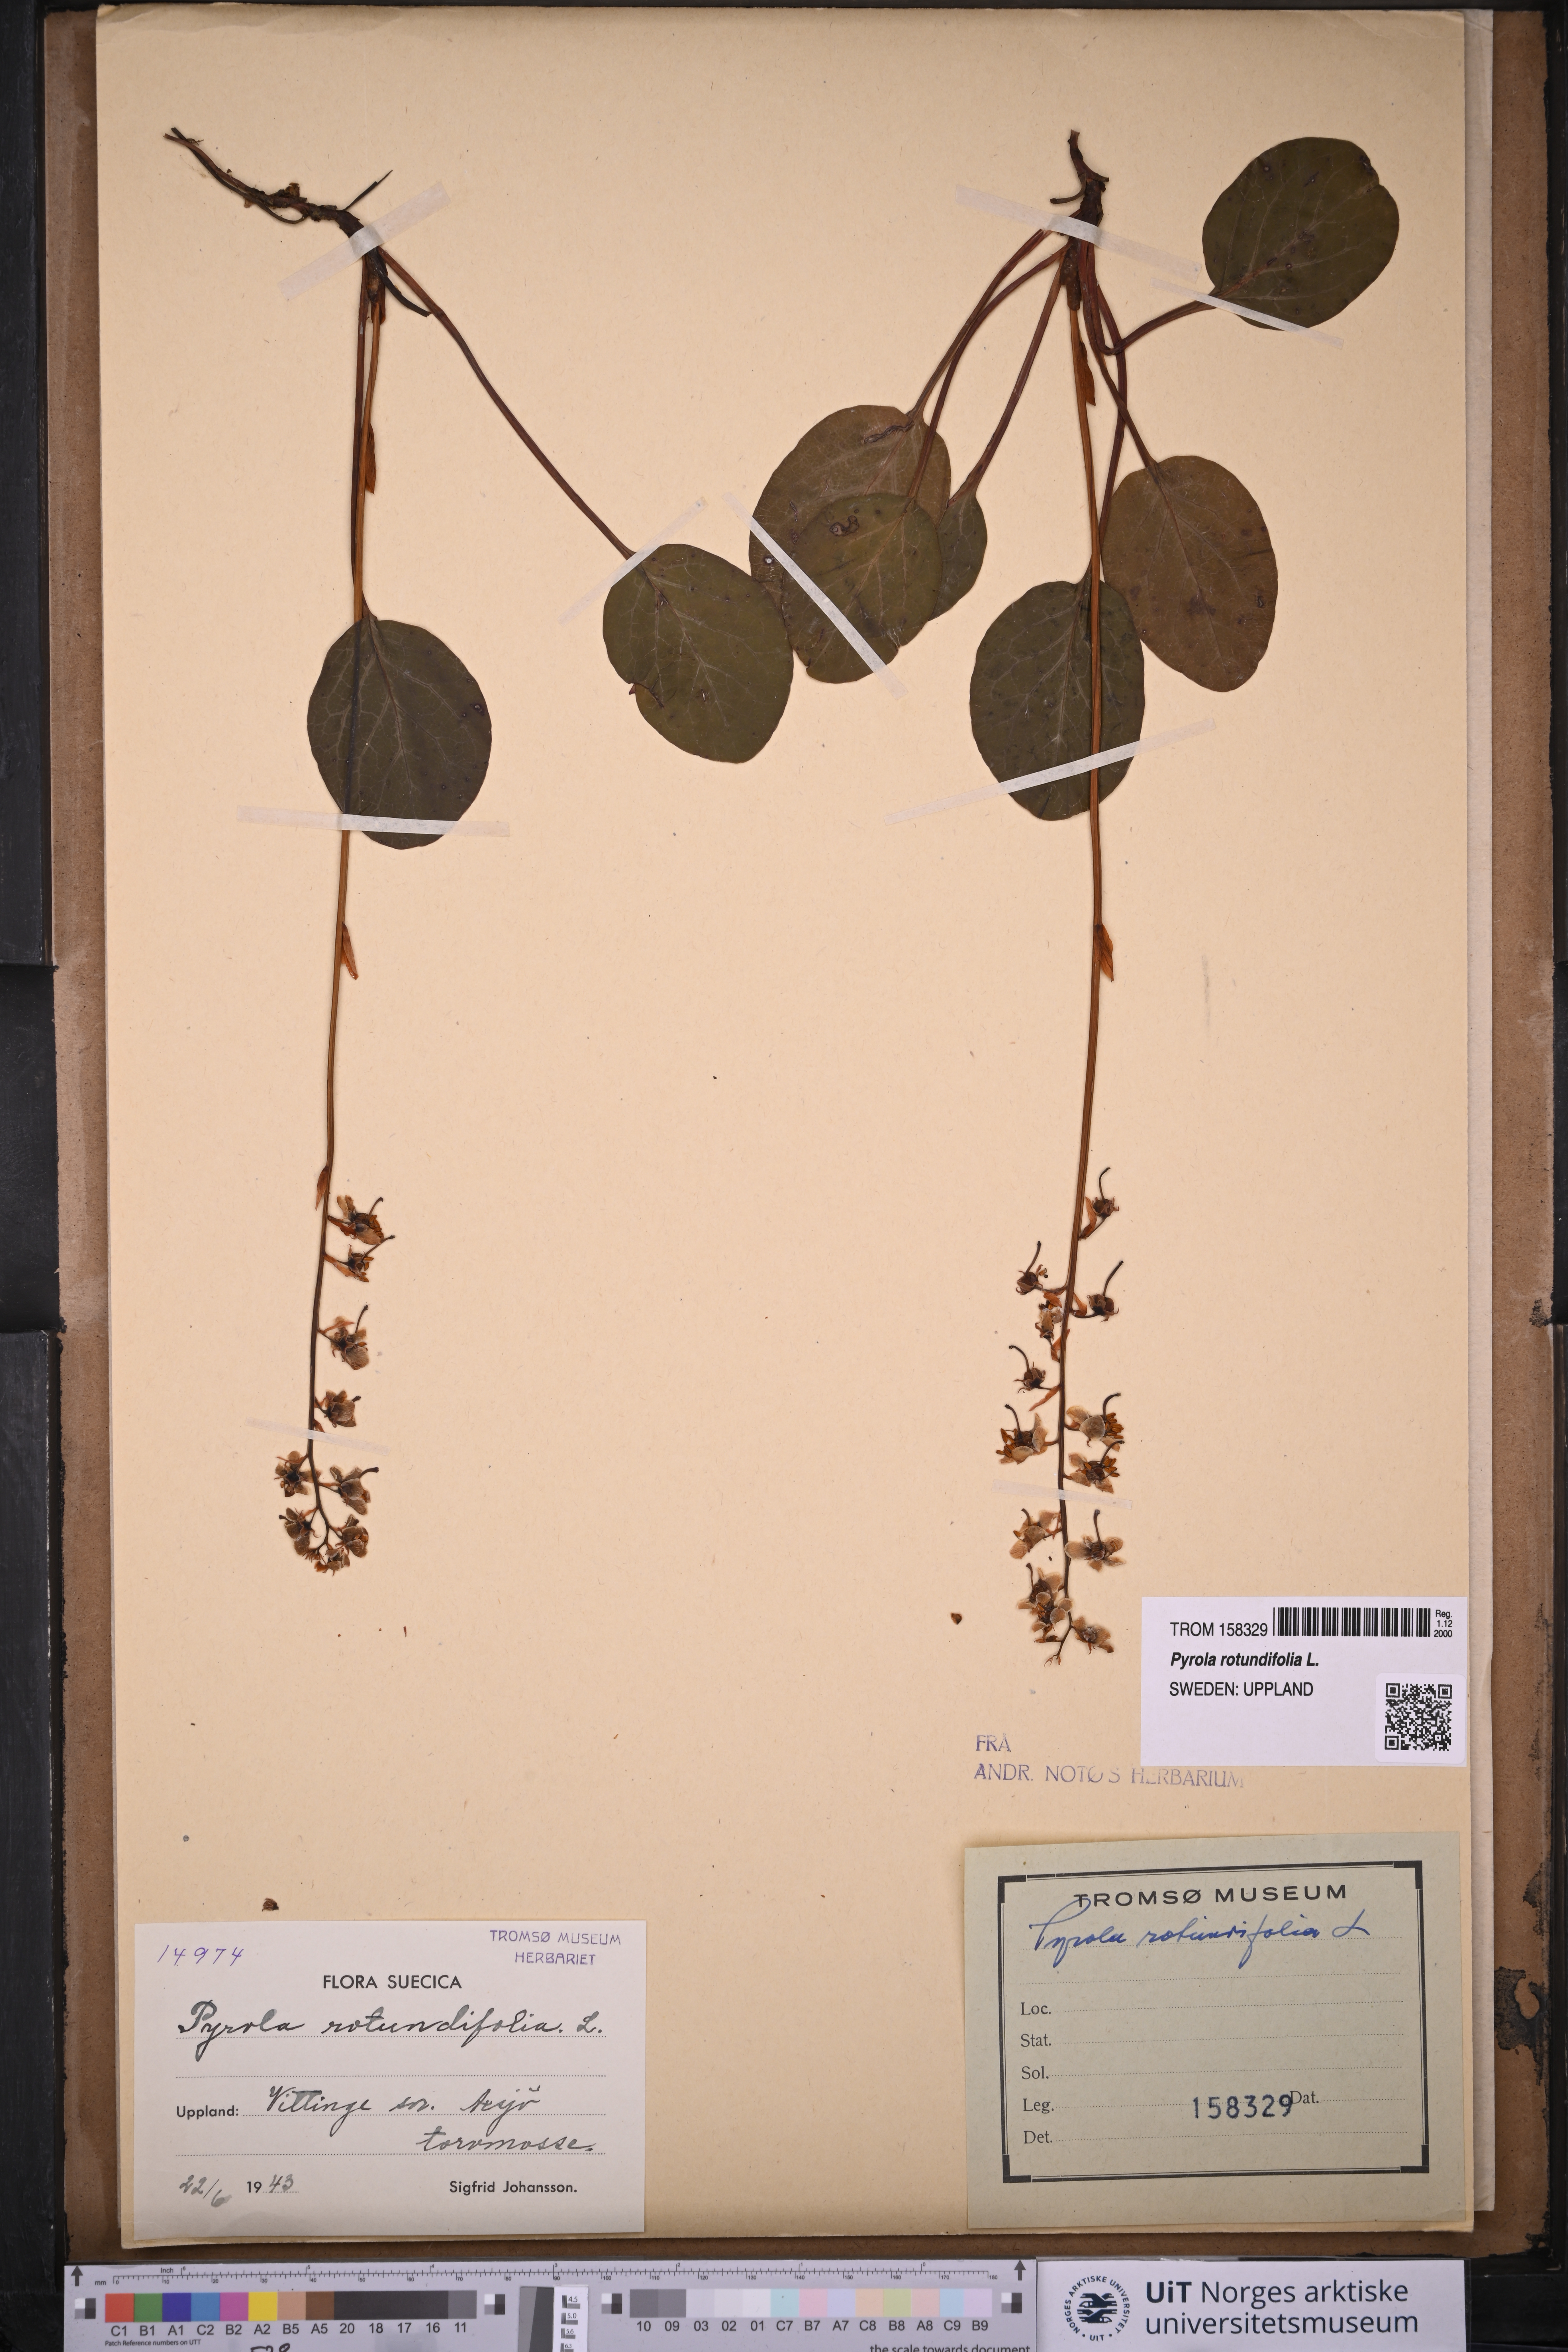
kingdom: Plantae
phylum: Tracheophyta
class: Magnoliopsida
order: Ericales
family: Ericaceae
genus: Pyrola
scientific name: Pyrola rotundifolia
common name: Round-leaved wintergreen
